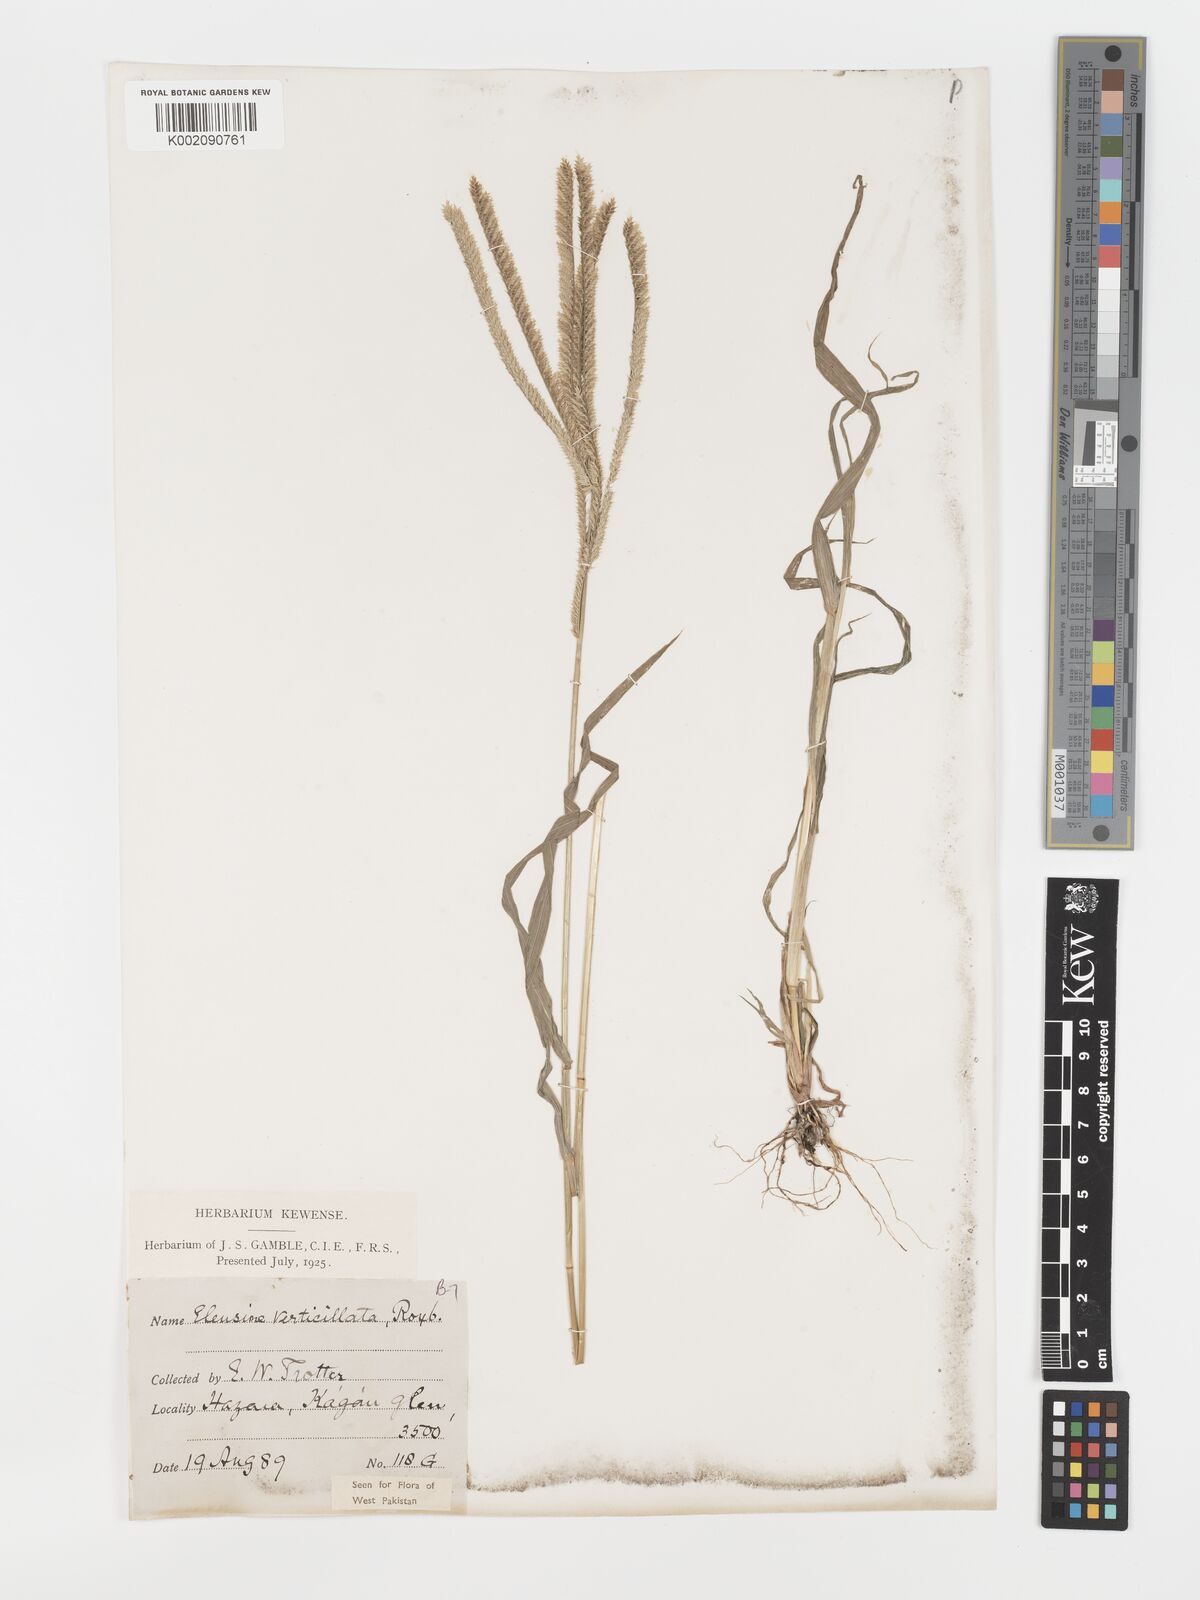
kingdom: Plantae
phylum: Tracheophyta
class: Liliopsida
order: Poales
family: Poaceae
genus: Acrachne
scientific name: Acrachne racemosa
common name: Goosegrass
